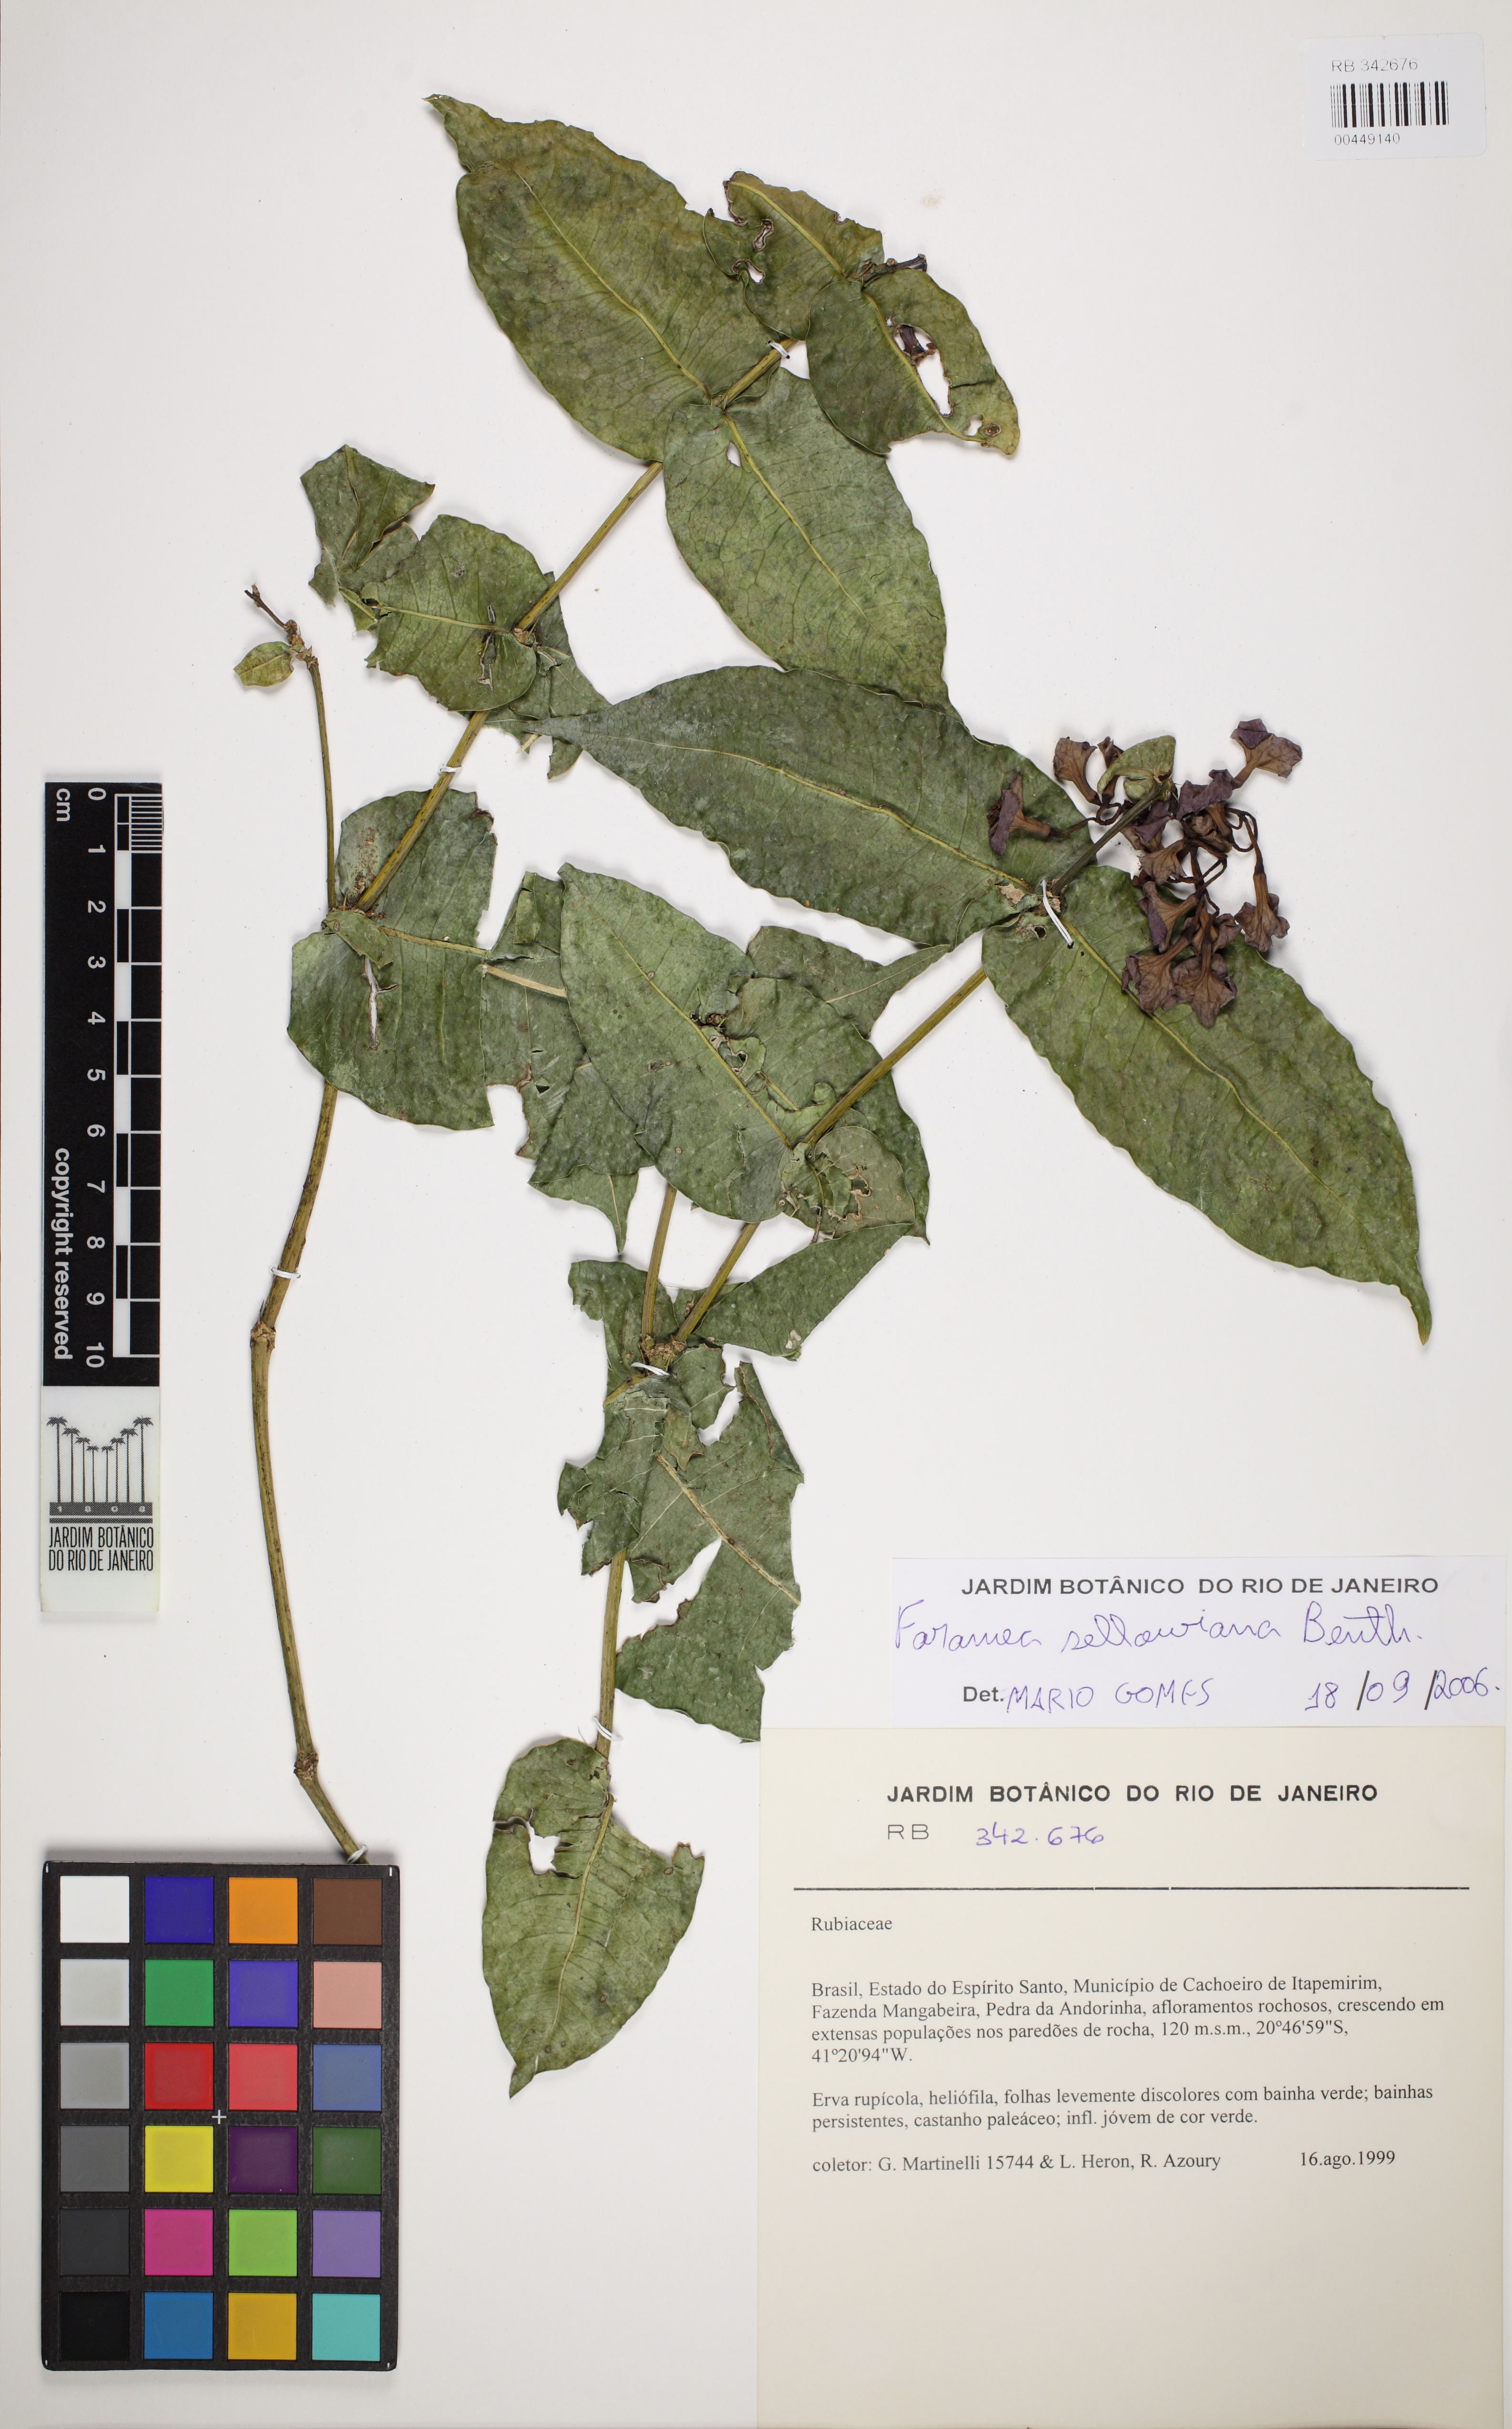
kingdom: Plantae
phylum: Tracheophyta
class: Magnoliopsida
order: Gentianales
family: Rubiaceae
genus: Faramea
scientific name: Faramea sellowiana
